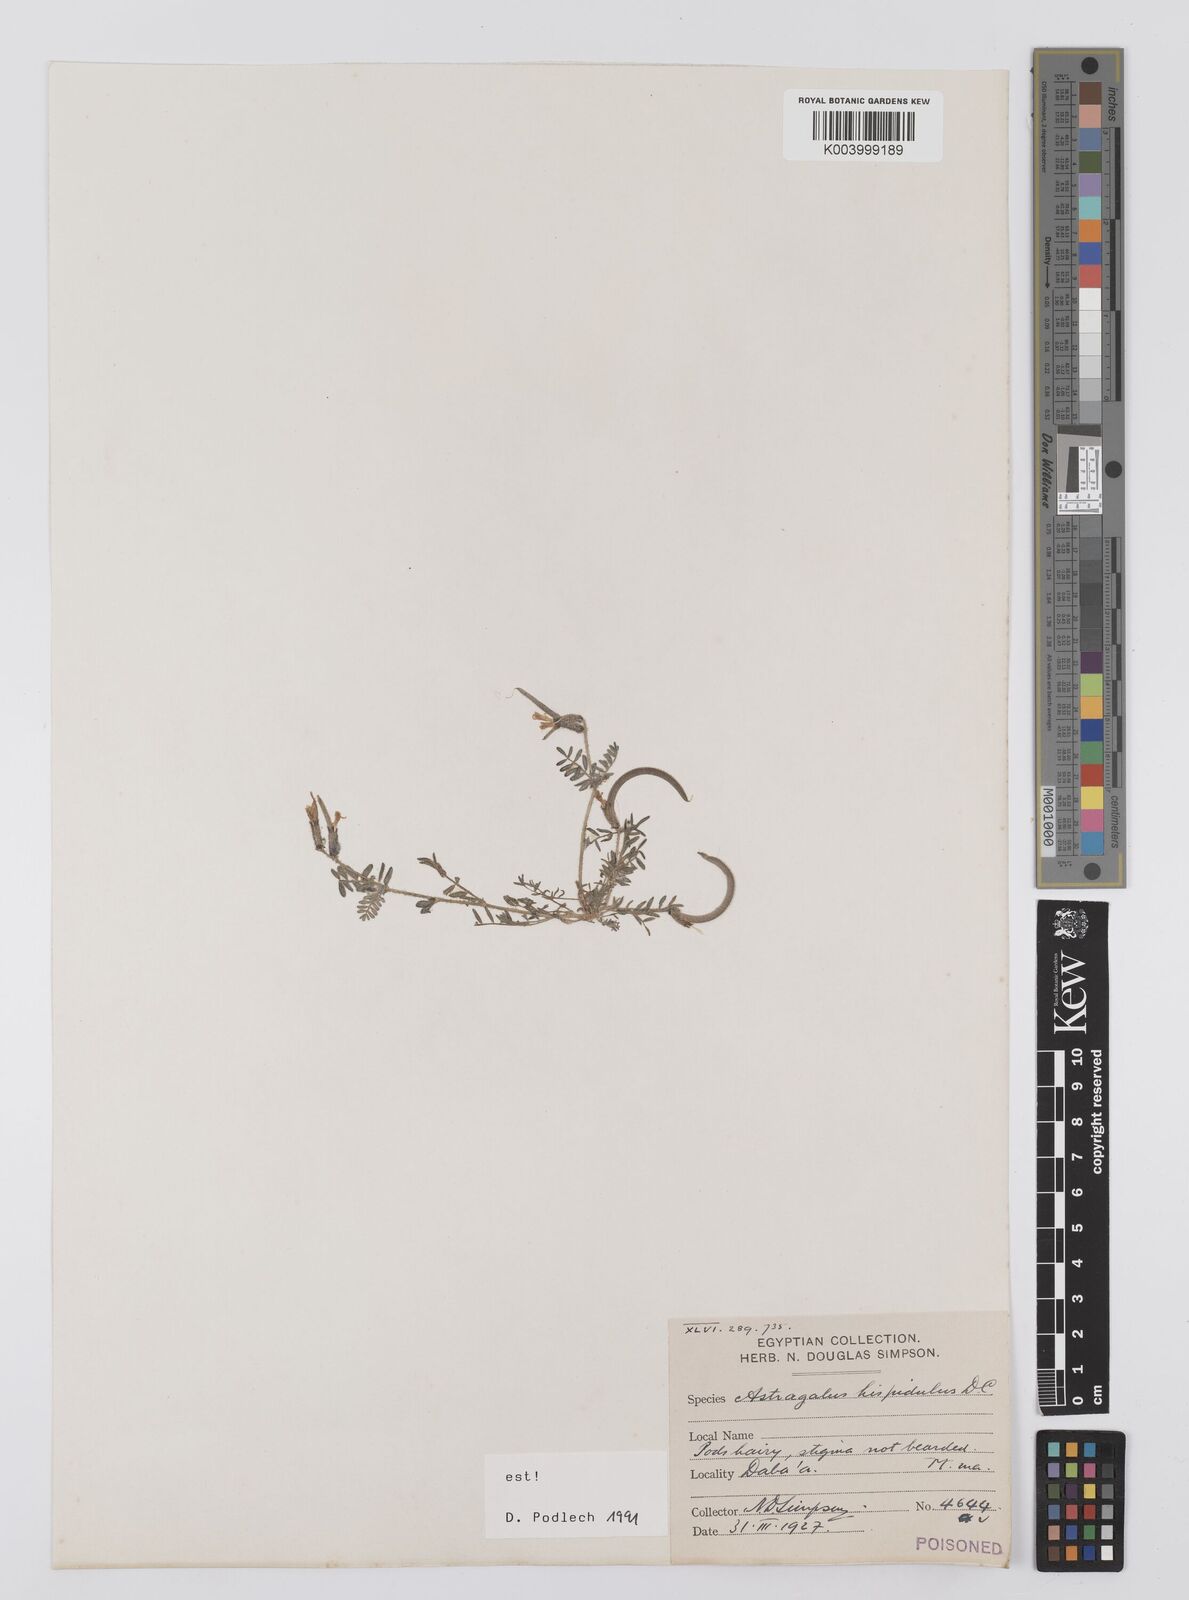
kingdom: Plantae
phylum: Tracheophyta
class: Magnoliopsida
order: Fabales
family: Fabaceae
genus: Astragalus
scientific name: Astragalus hispidulus
